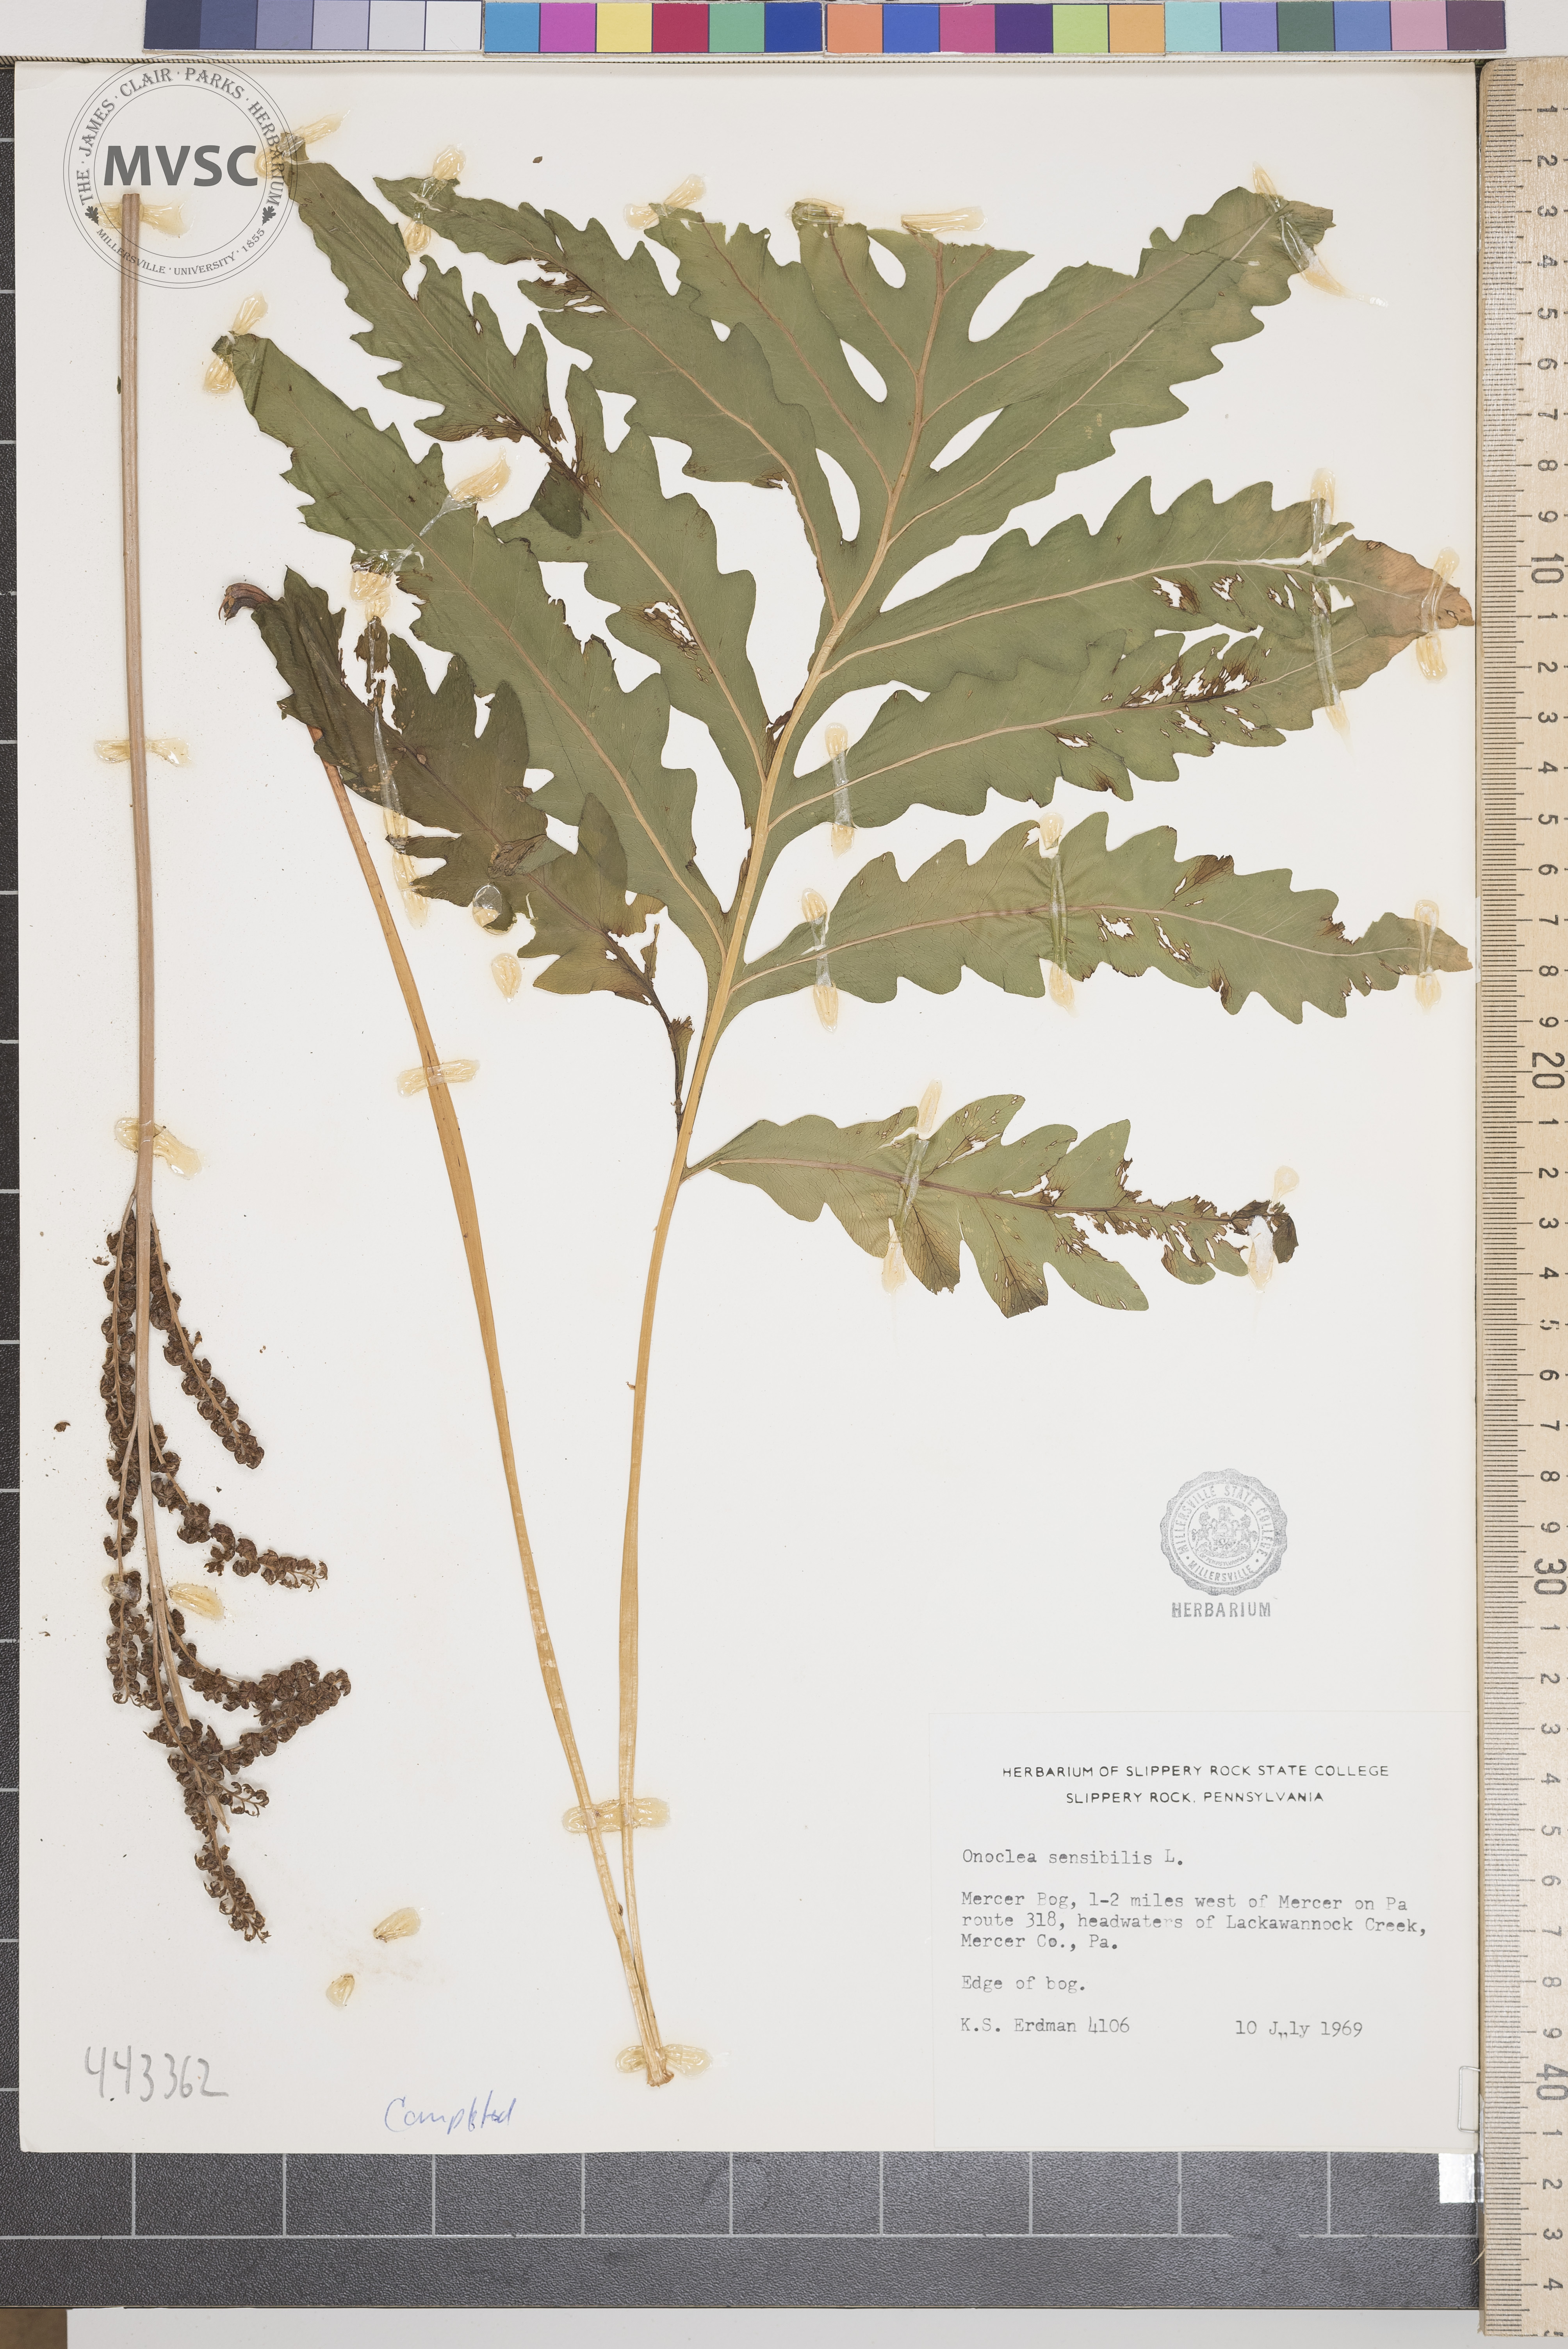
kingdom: Plantae
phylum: Tracheophyta
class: Polypodiopsida
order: Polypodiales
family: Onocleaceae
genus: Onoclea
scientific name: Onoclea sensibilis
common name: Sensitive fern
